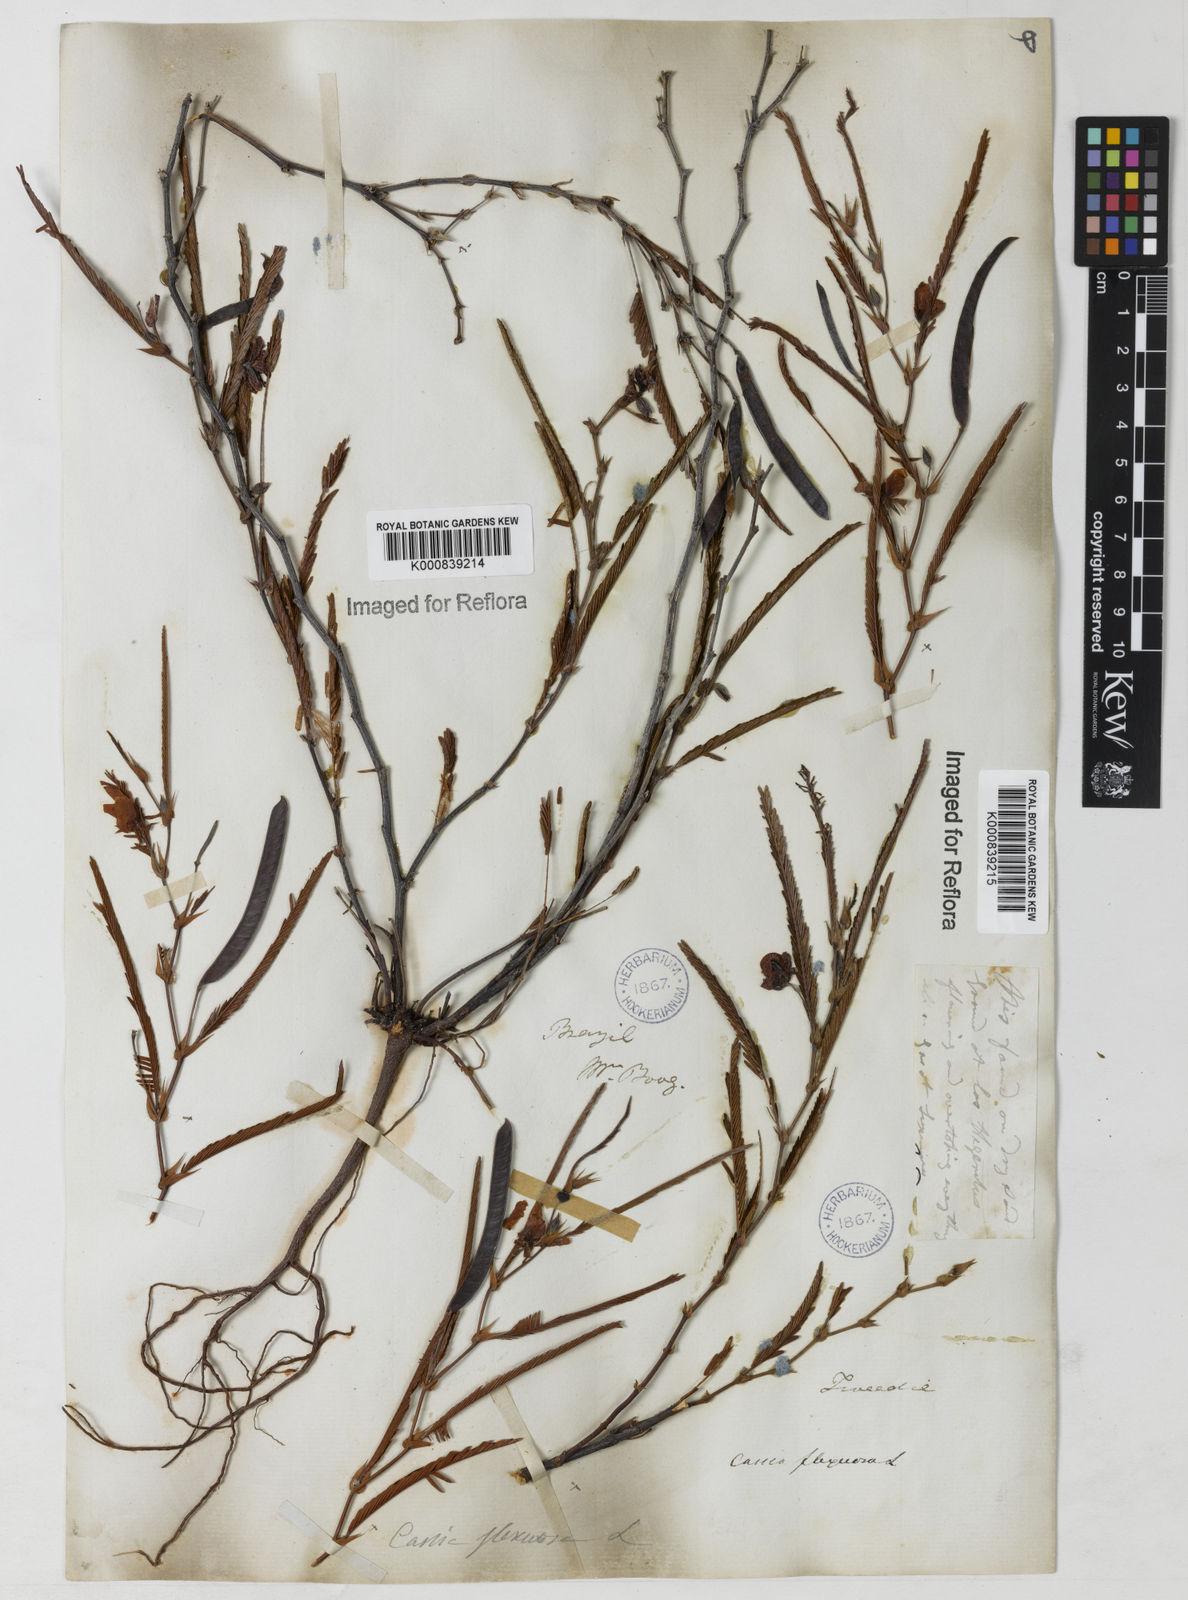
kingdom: Plantae
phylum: Tracheophyta
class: Magnoliopsida
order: Fabales
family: Fabaceae
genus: Chamaecrista
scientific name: Chamaecrista flexuosa
